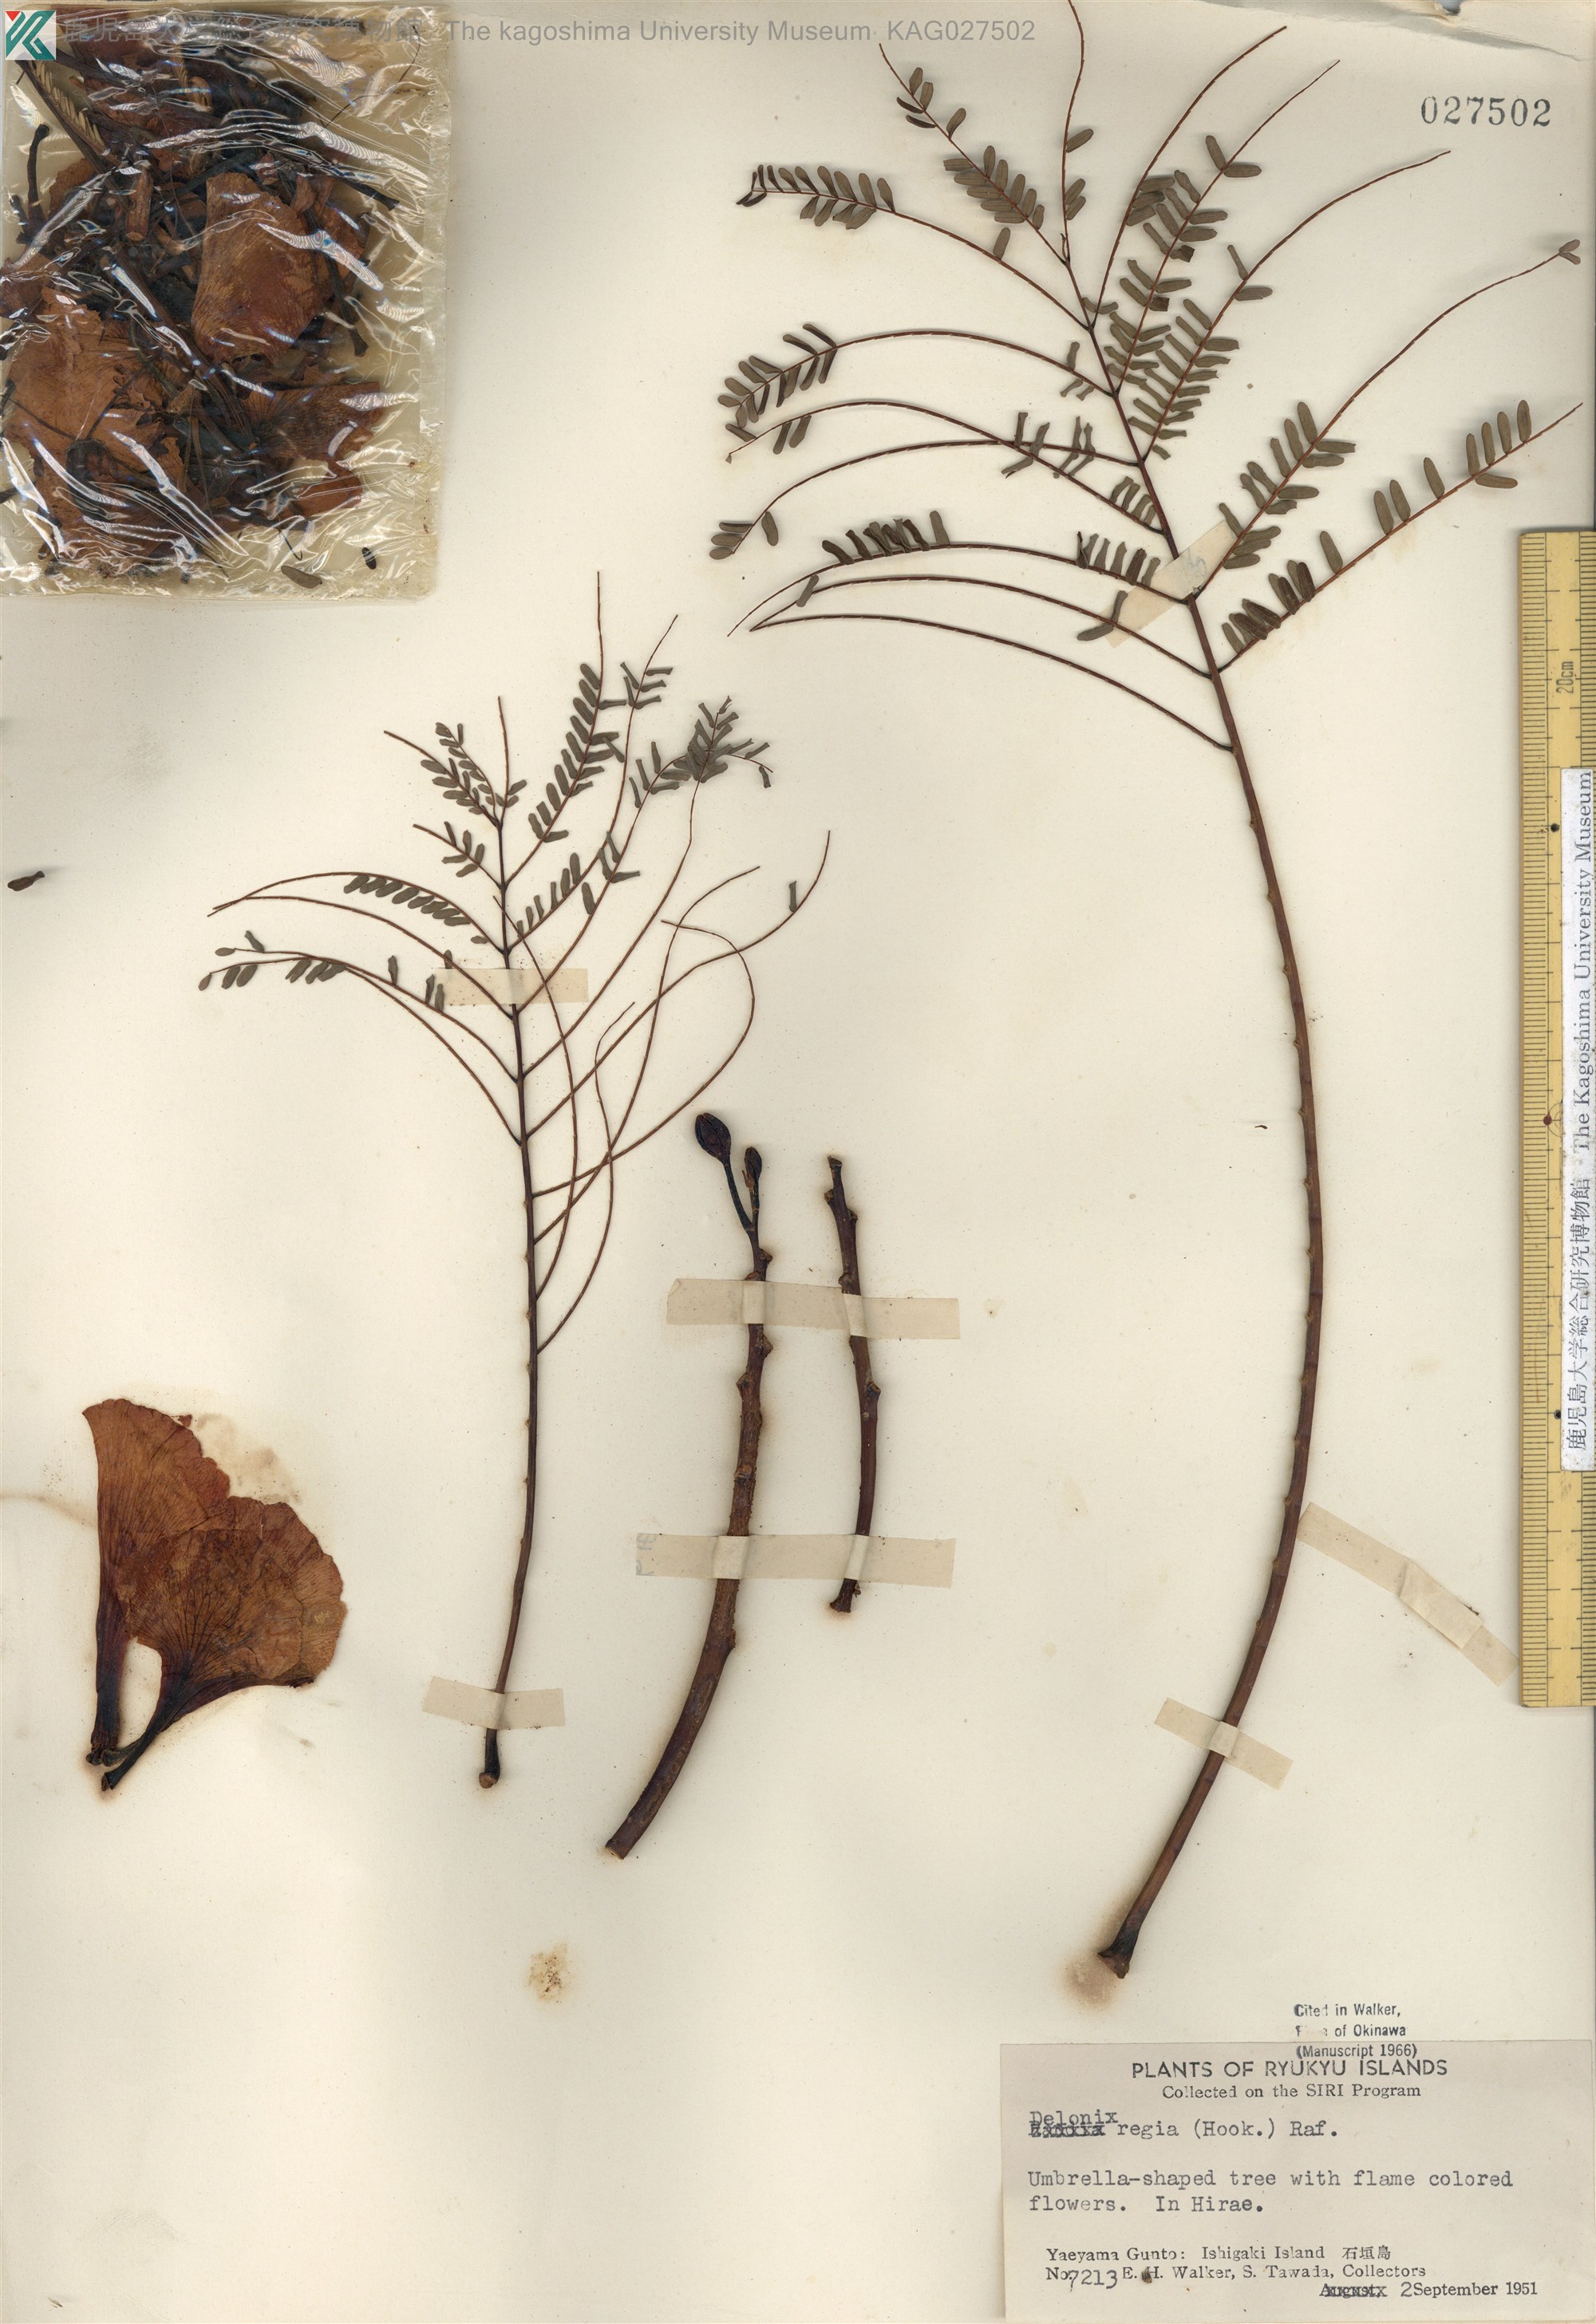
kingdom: Plantae
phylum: Tracheophyta
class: Magnoliopsida
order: Fabales
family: Fabaceae
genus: Delonix
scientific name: Delonix regia
